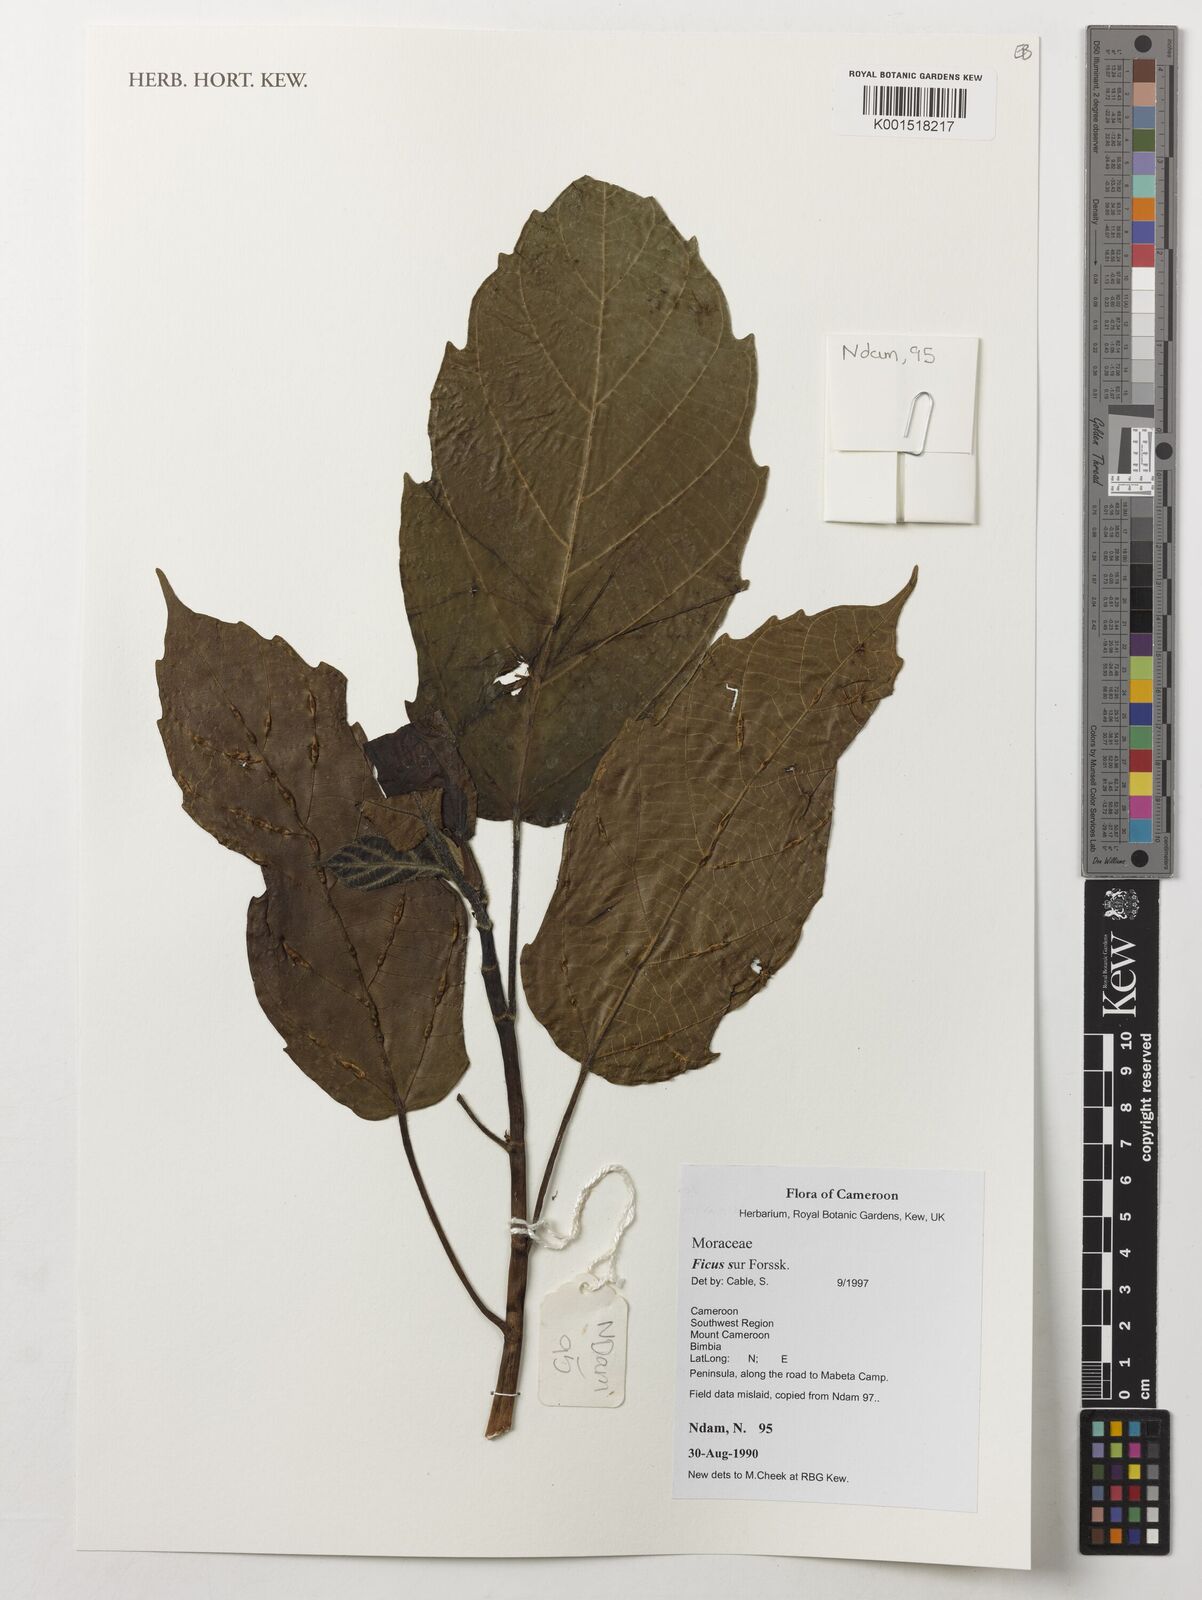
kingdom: Plantae
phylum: Tracheophyta
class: Magnoliopsida
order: Rosales
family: Moraceae
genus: Ficus
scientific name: Ficus sur
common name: Cape fig
